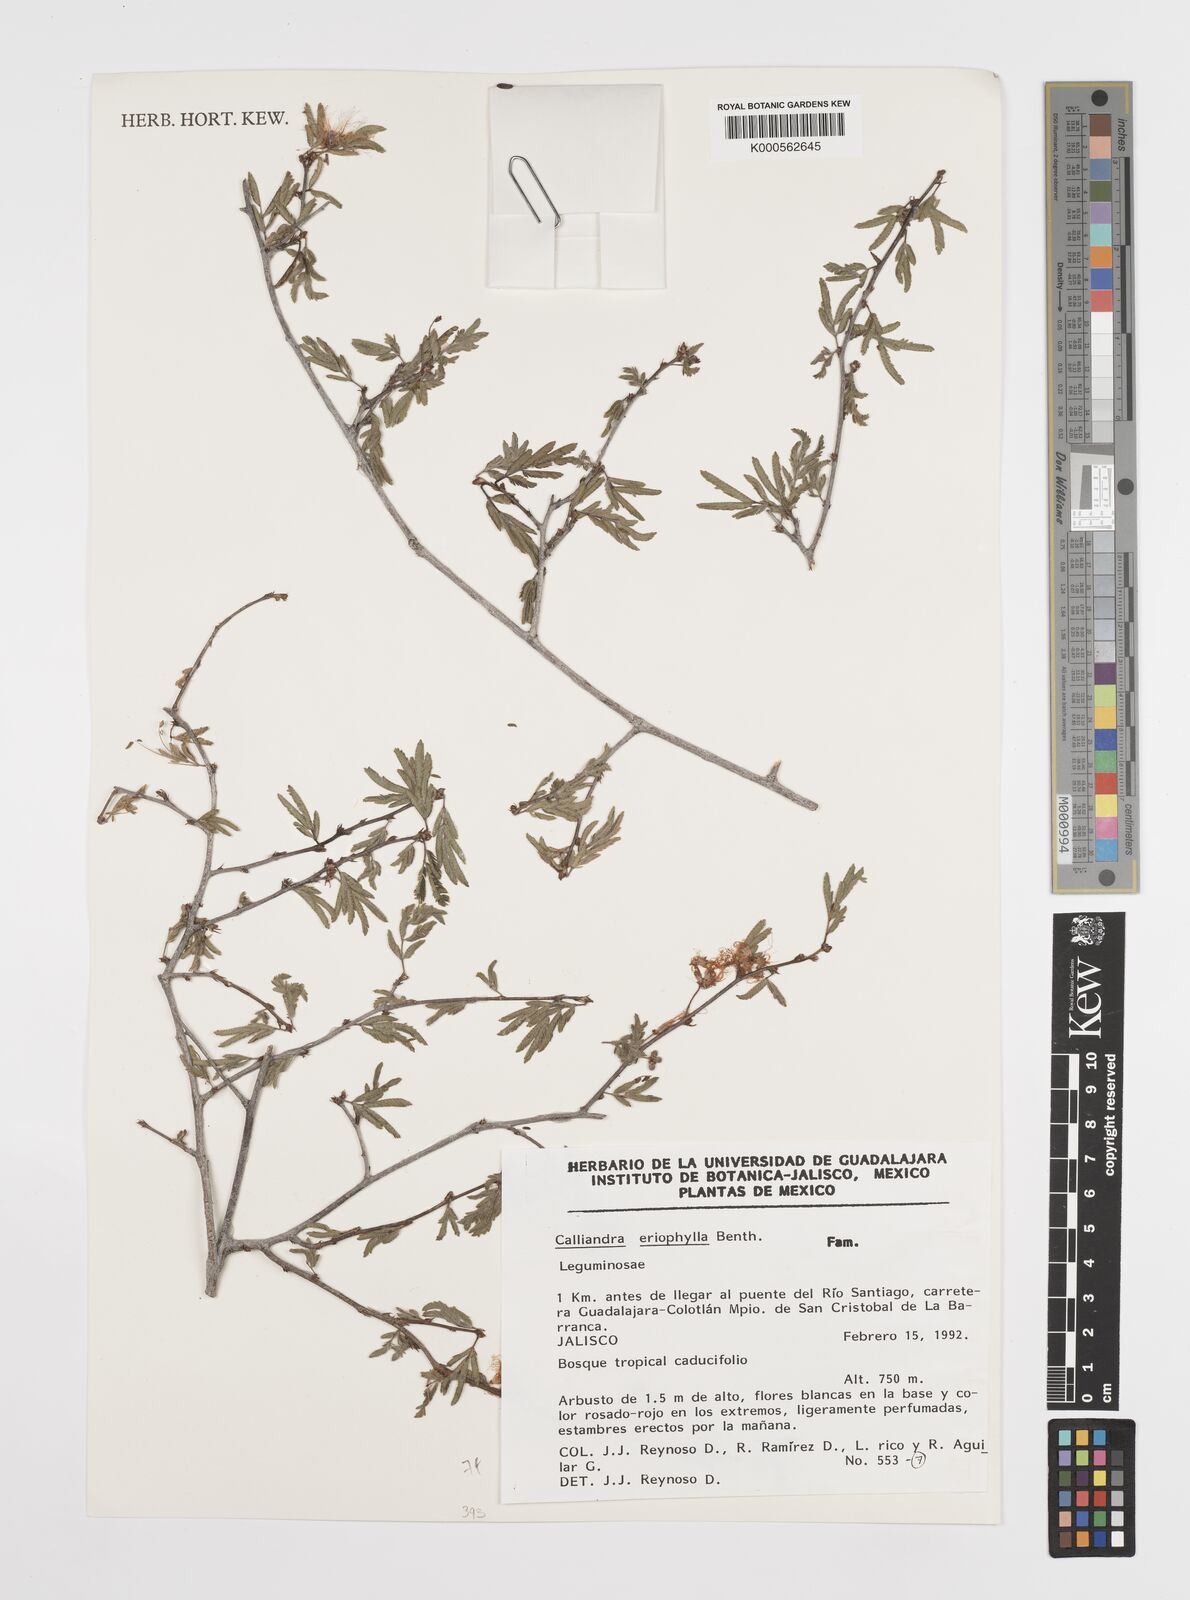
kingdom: Plantae
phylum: Tracheophyta
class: Magnoliopsida
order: Fabales
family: Fabaceae
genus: Calliandra
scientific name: Calliandra eriophylla
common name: Fairy-duster
